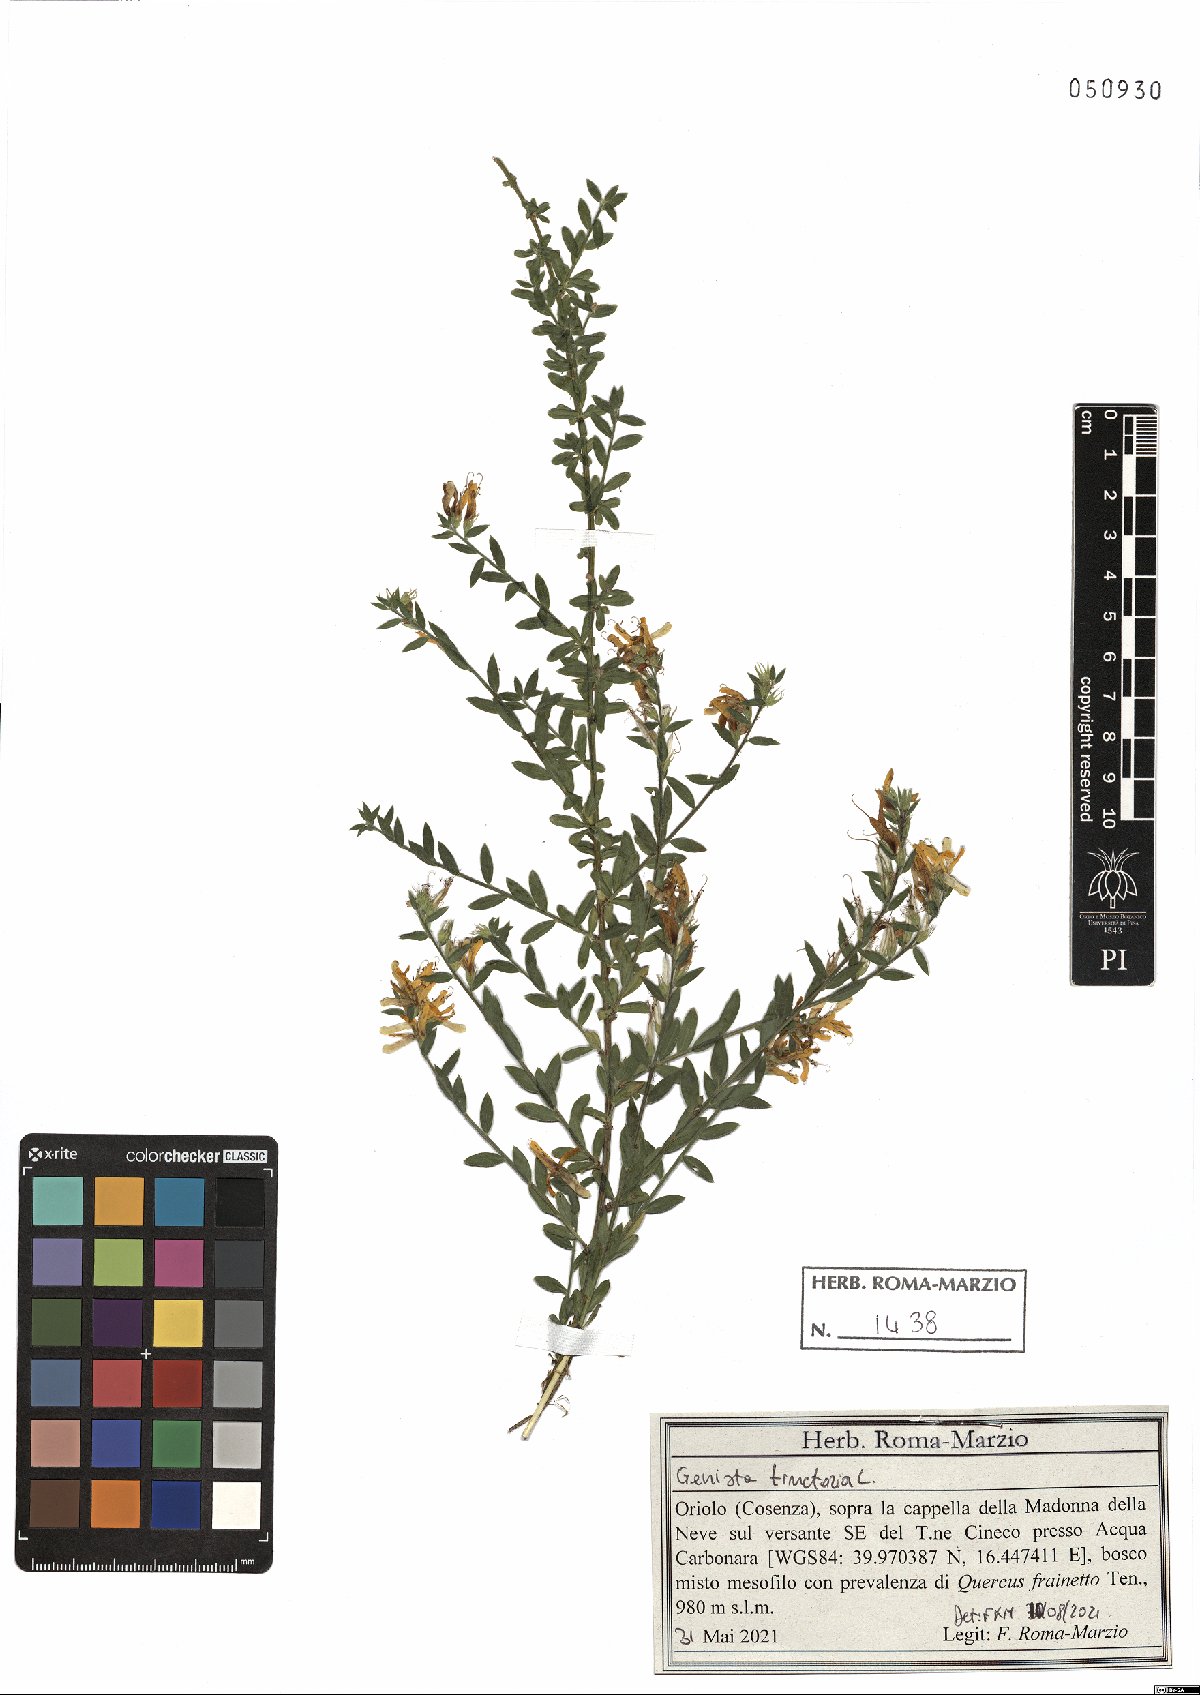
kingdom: Plantae
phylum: Tracheophyta
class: Magnoliopsida
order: Fabales
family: Fabaceae
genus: Genista
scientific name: Genista tinctoria
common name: Dyer's greenweed
